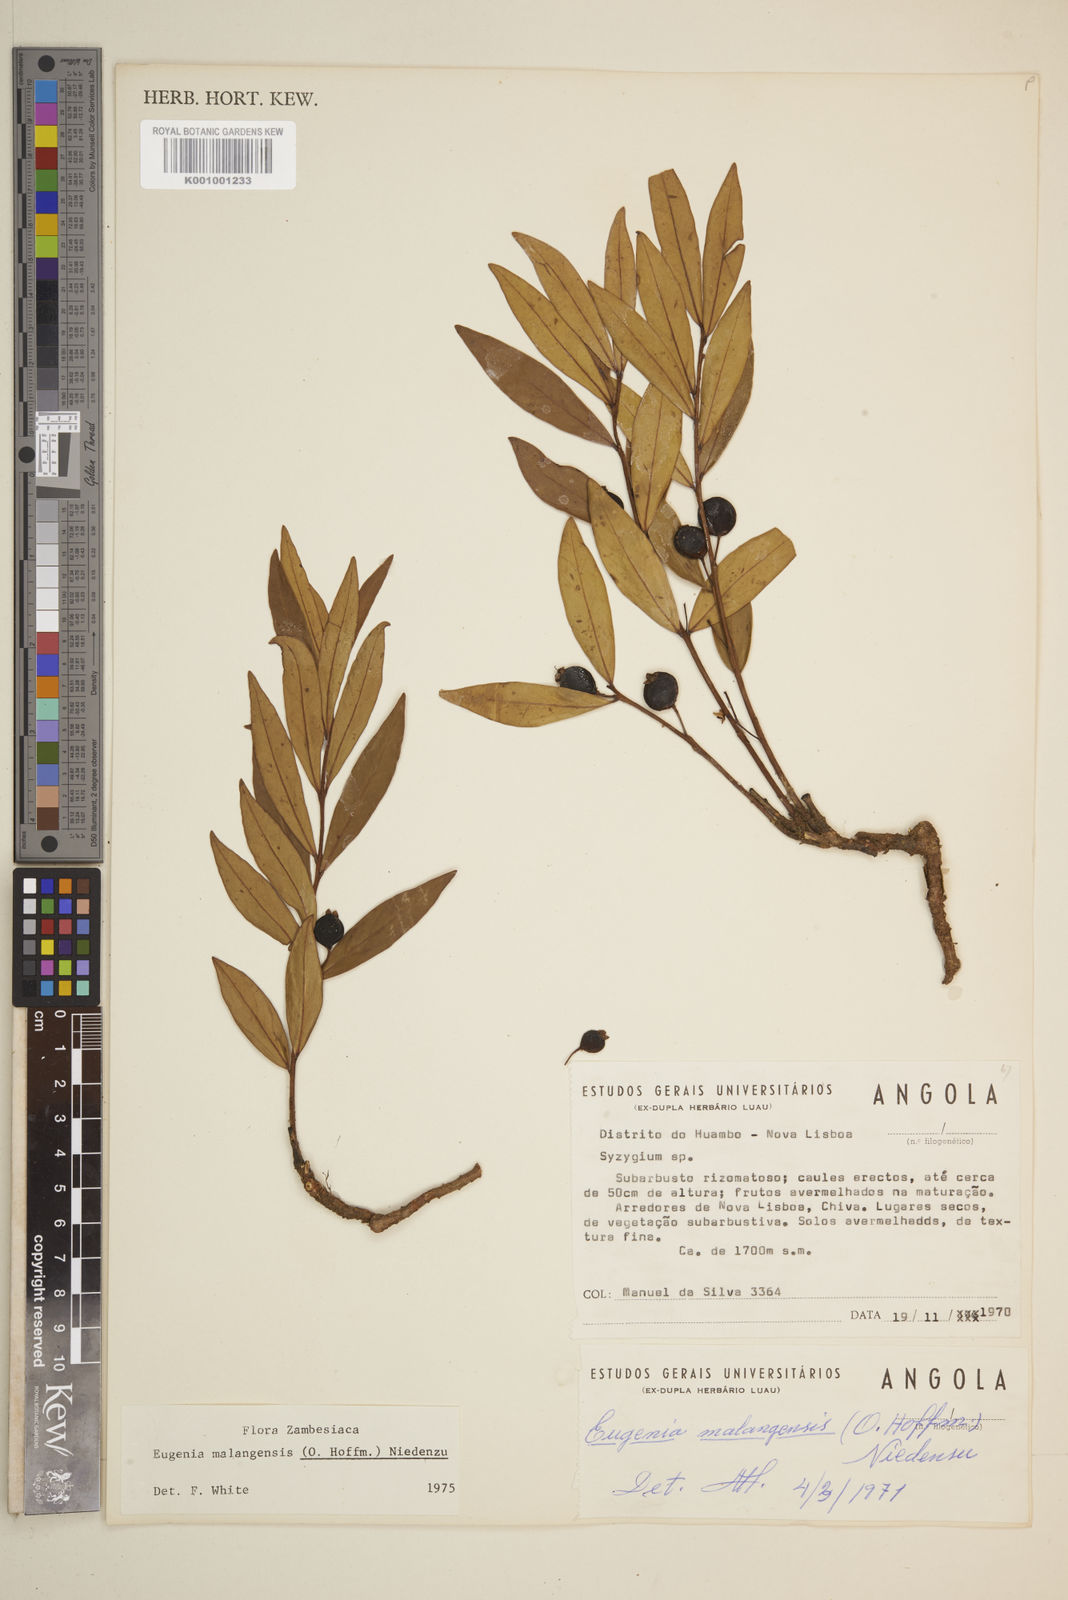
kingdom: Plantae
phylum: Tracheophyta
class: Magnoliopsida
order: Myrtales
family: Myrtaceae
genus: Eugenia
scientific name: Eugenia malangensis
